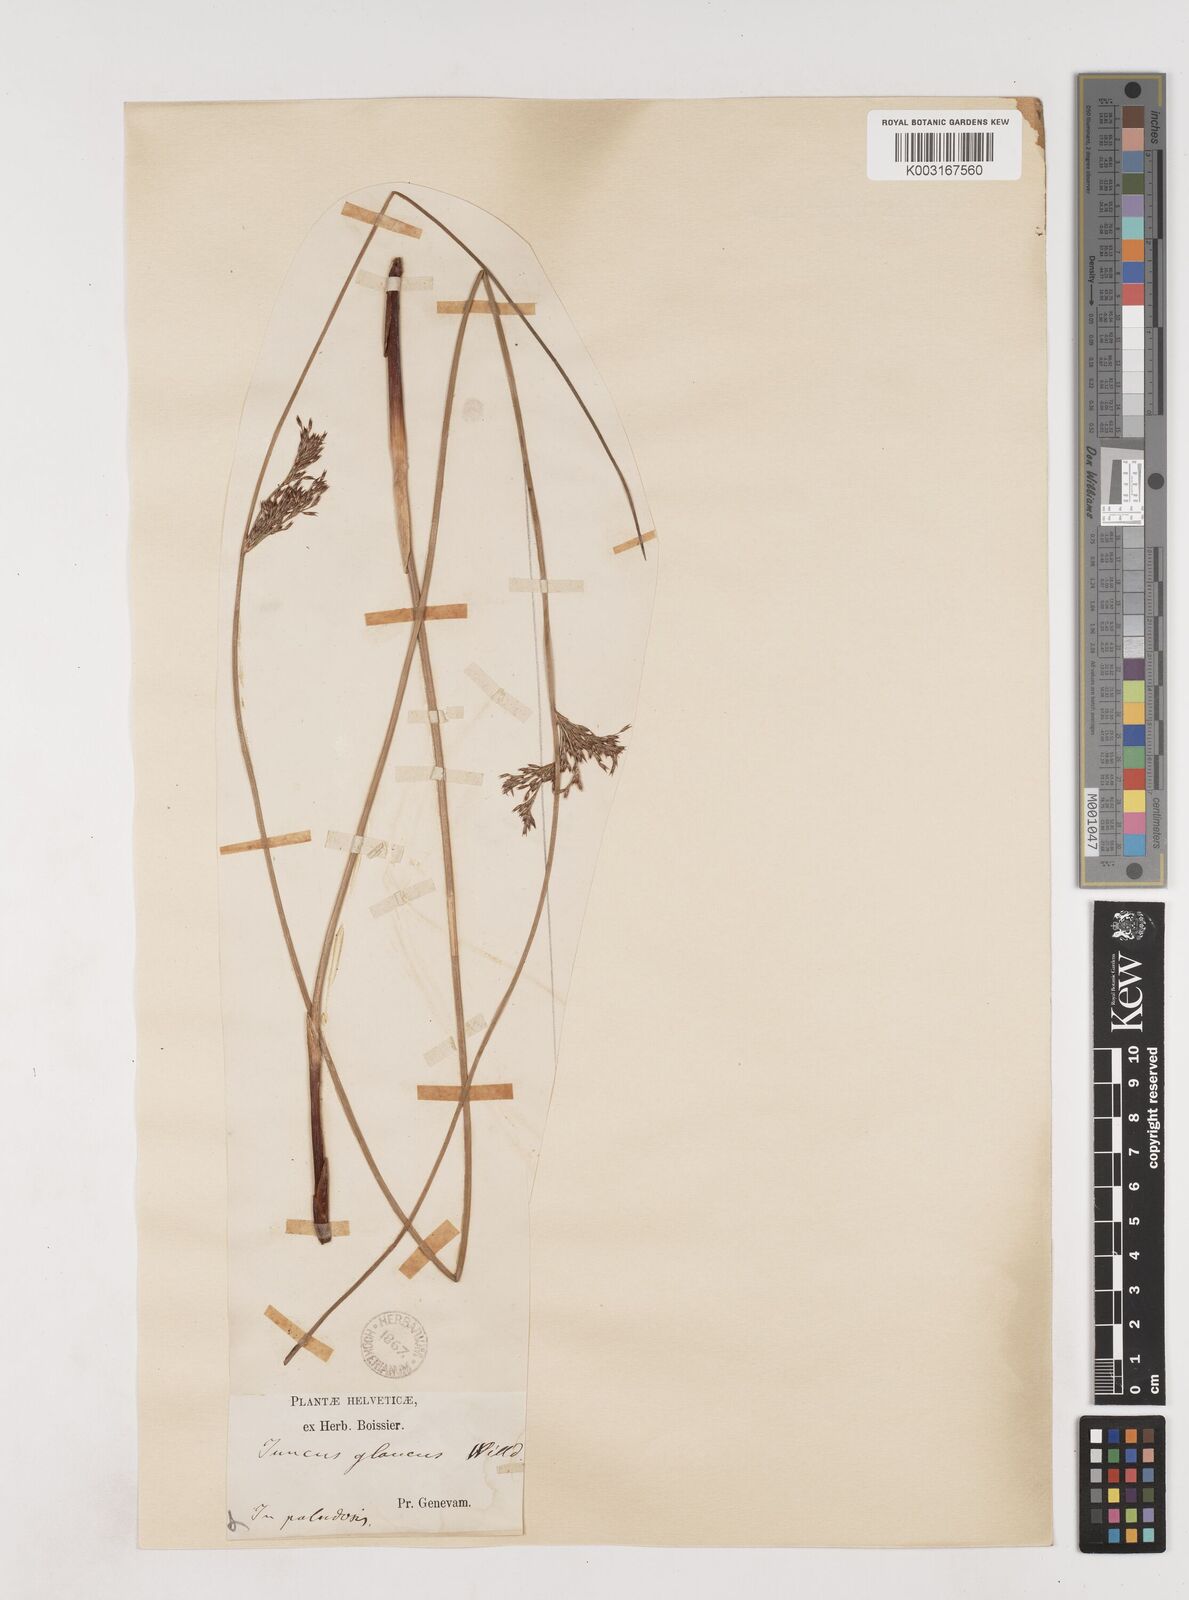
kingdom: Plantae
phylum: Tracheophyta
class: Liliopsida
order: Poales
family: Juncaceae
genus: Juncus
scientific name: Juncus inflexus
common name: Hard rush
